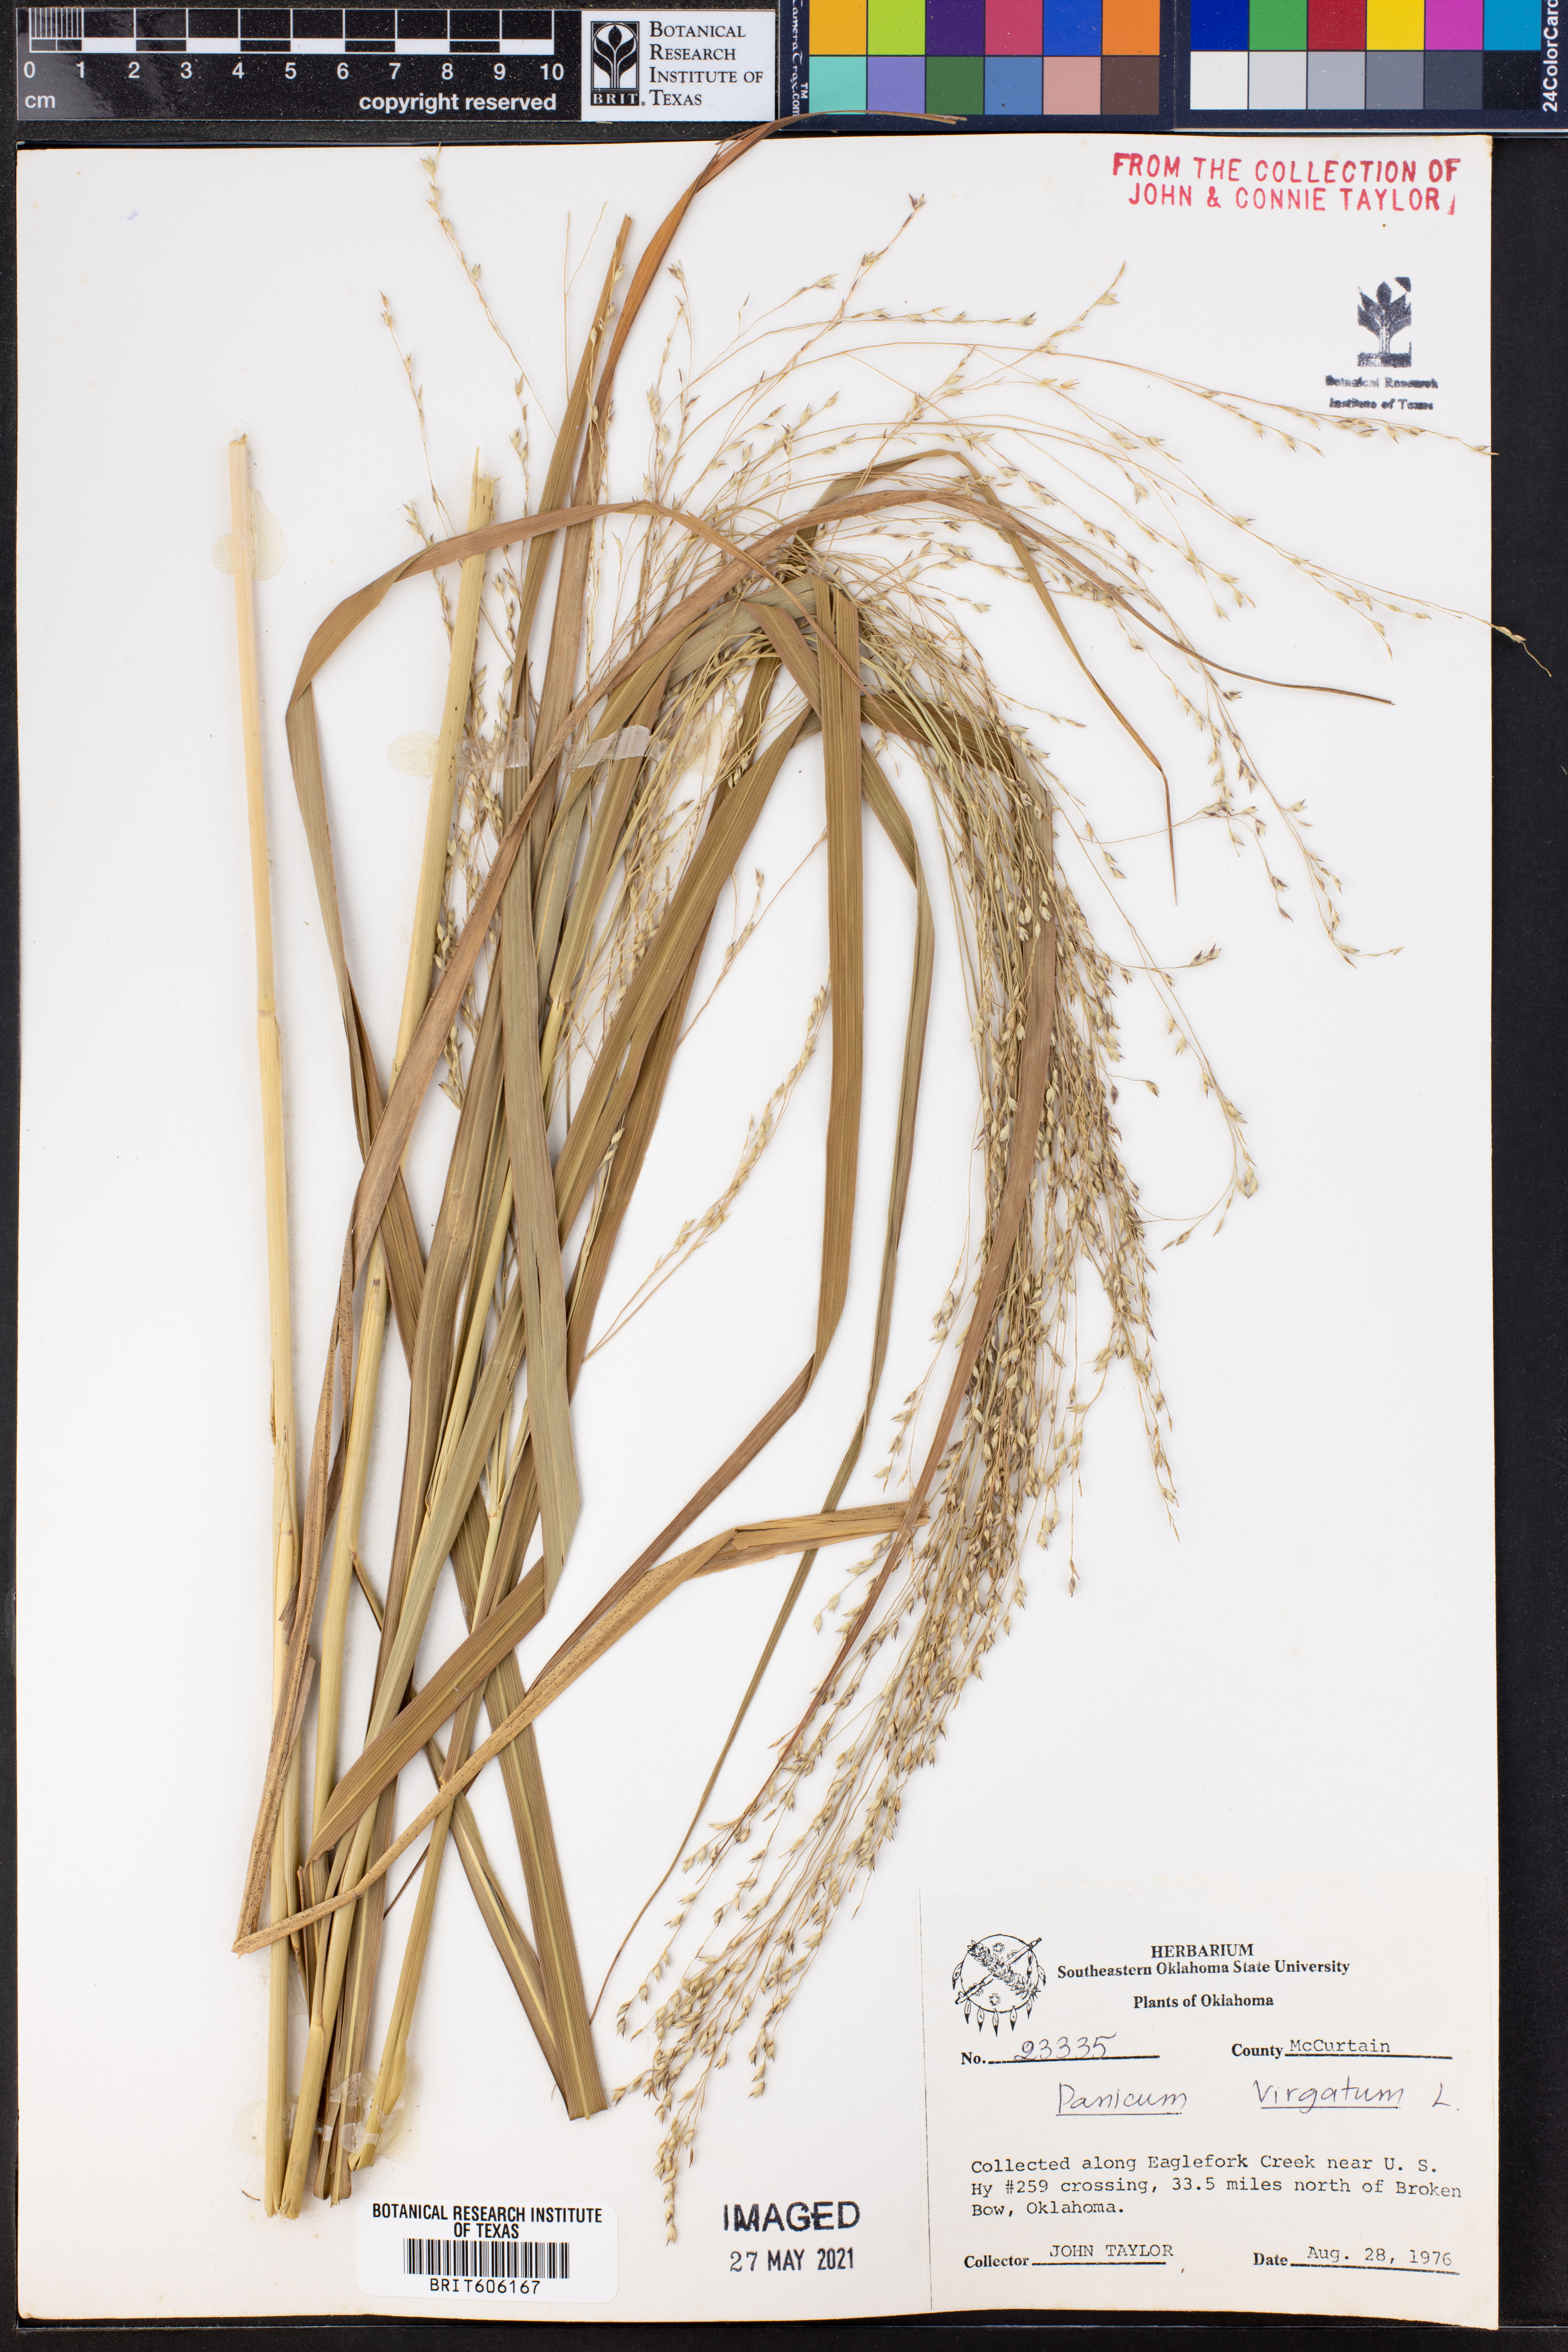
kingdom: Plantae
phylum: Tracheophyta
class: Liliopsida
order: Poales
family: Poaceae
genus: Panicum
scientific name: Panicum virgatum
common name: Switchgrass
